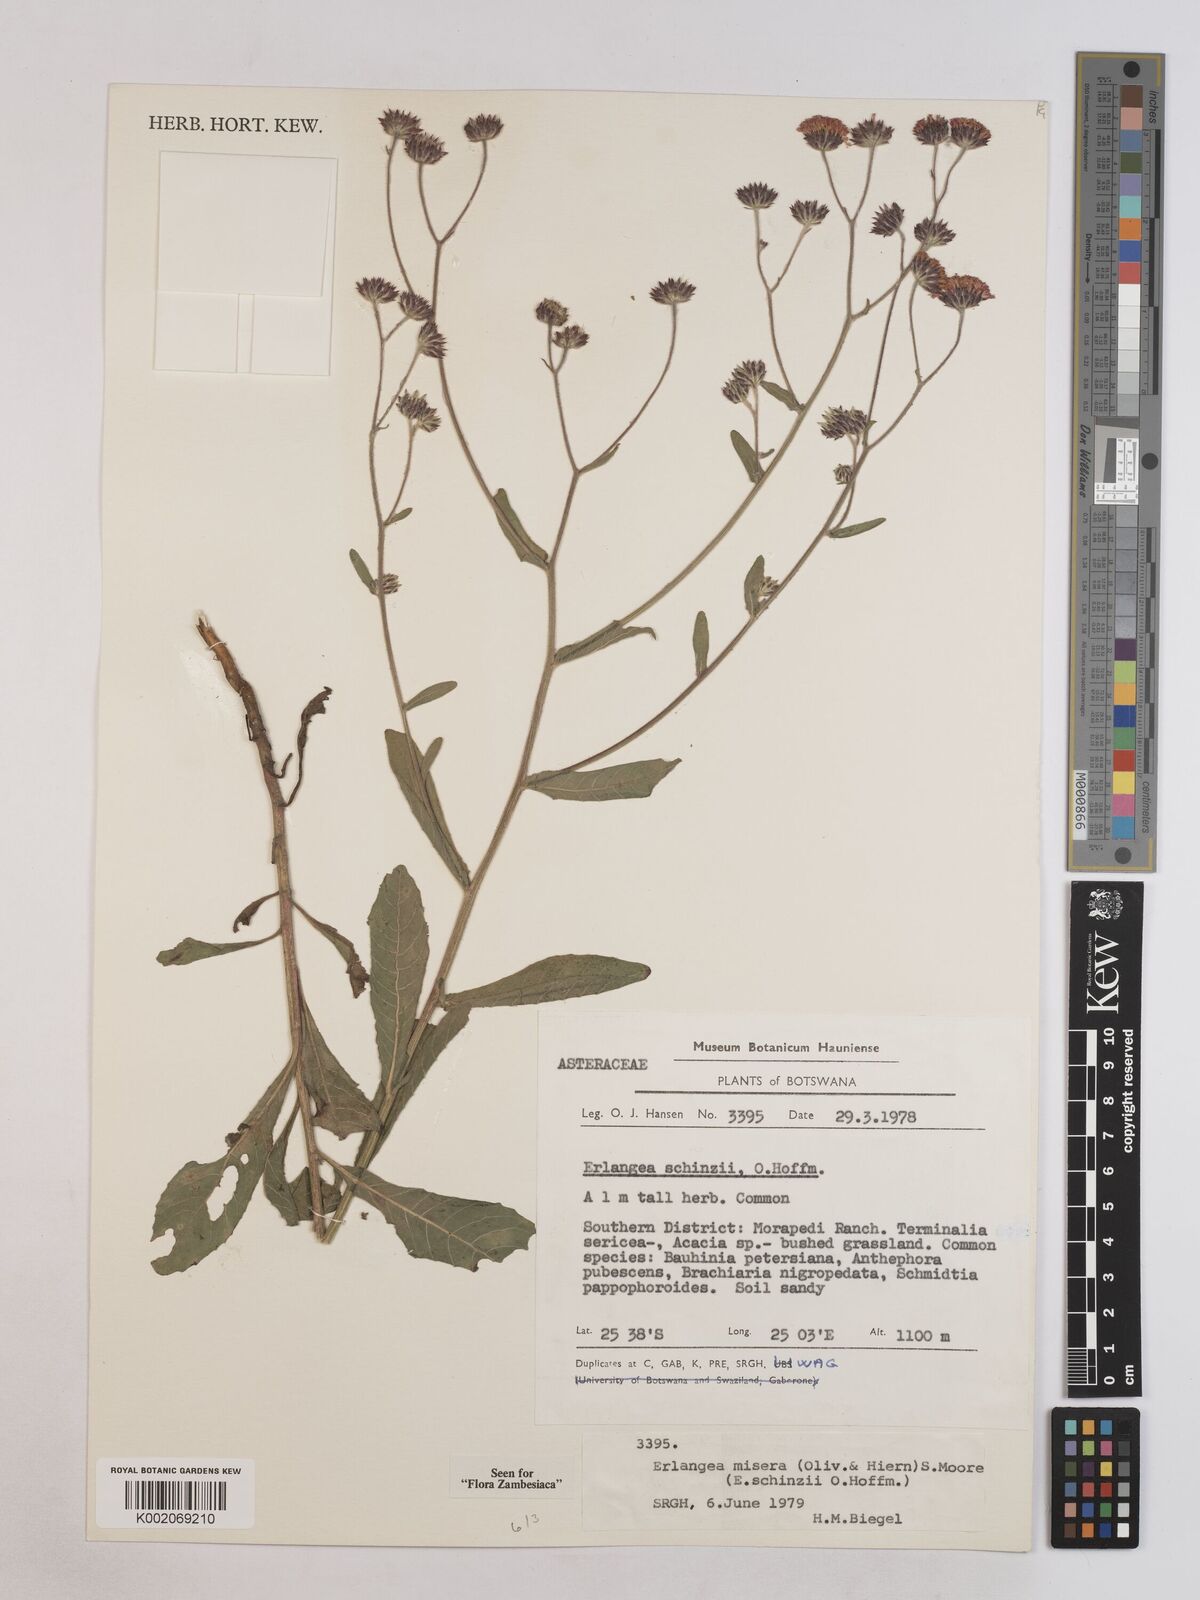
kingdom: Plantae
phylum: Tracheophyta
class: Magnoliopsida
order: Asterales
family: Asteraceae
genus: Erlangea
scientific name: Erlangea misera
